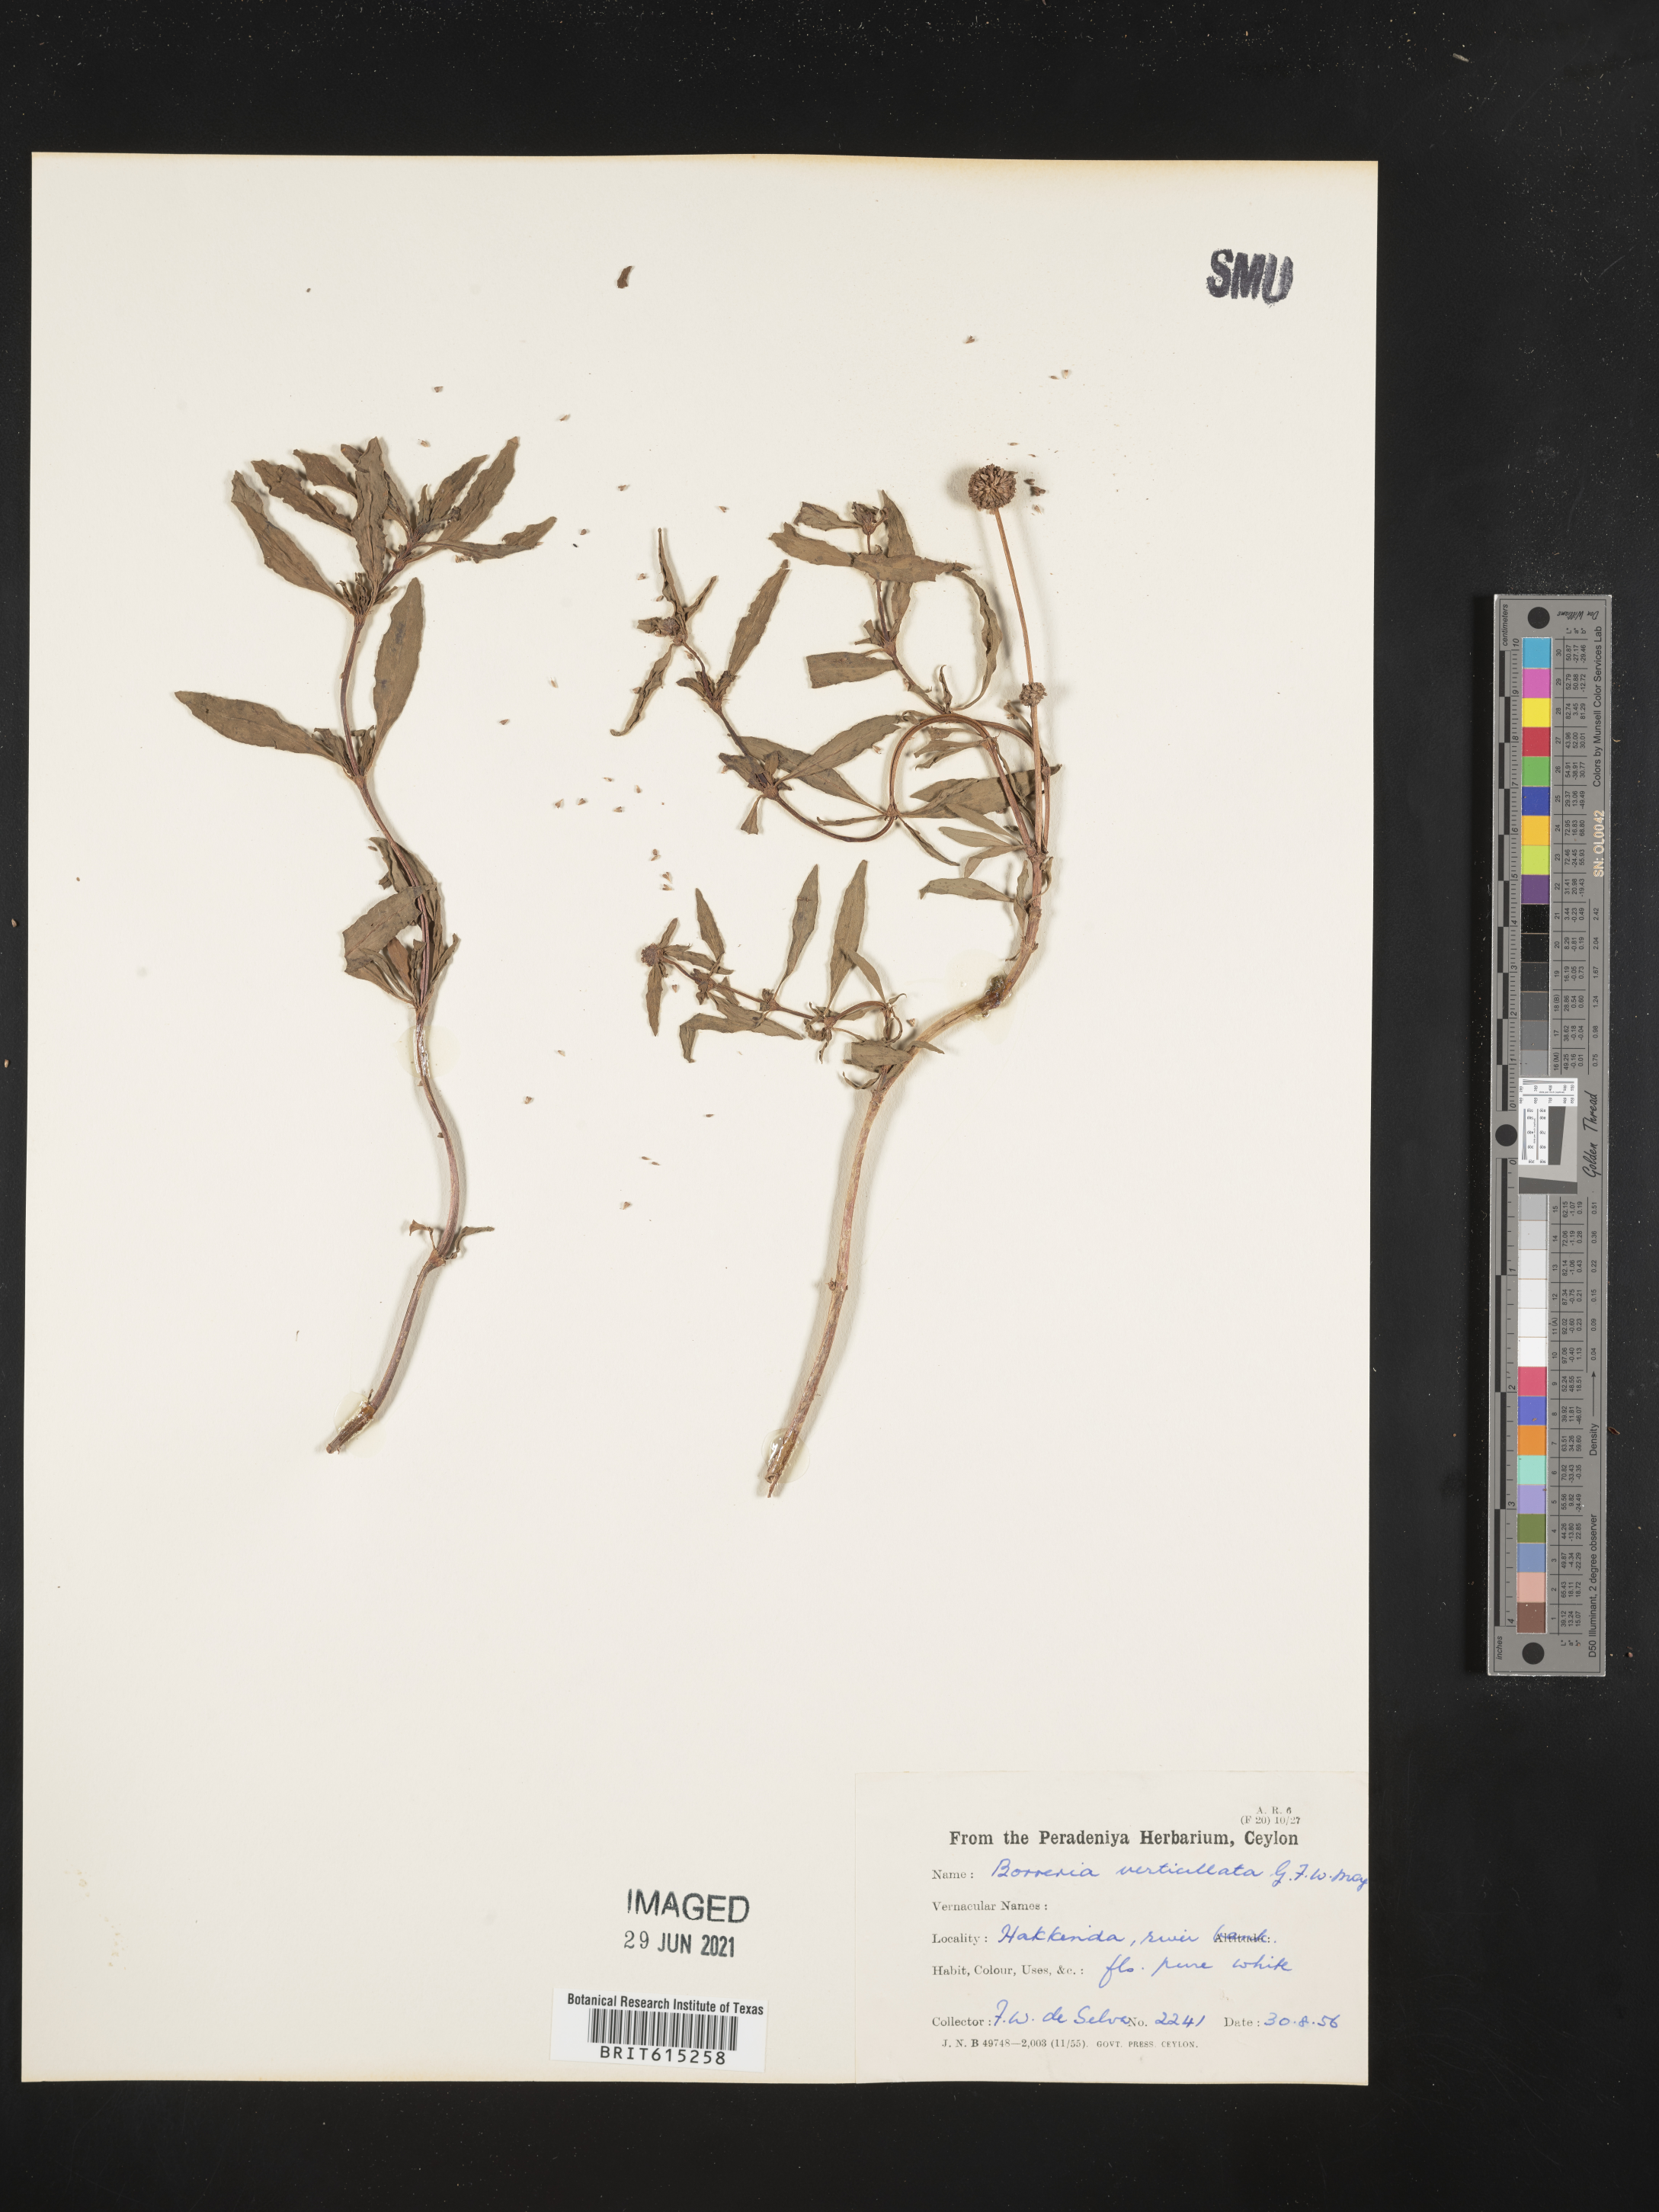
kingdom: Plantae
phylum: Tracheophyta
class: Magnoliopsida
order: Gentianales
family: Rubiaceae
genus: Spermacoce
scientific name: Spermacoce verticillata
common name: Shrubby false buttonweed
